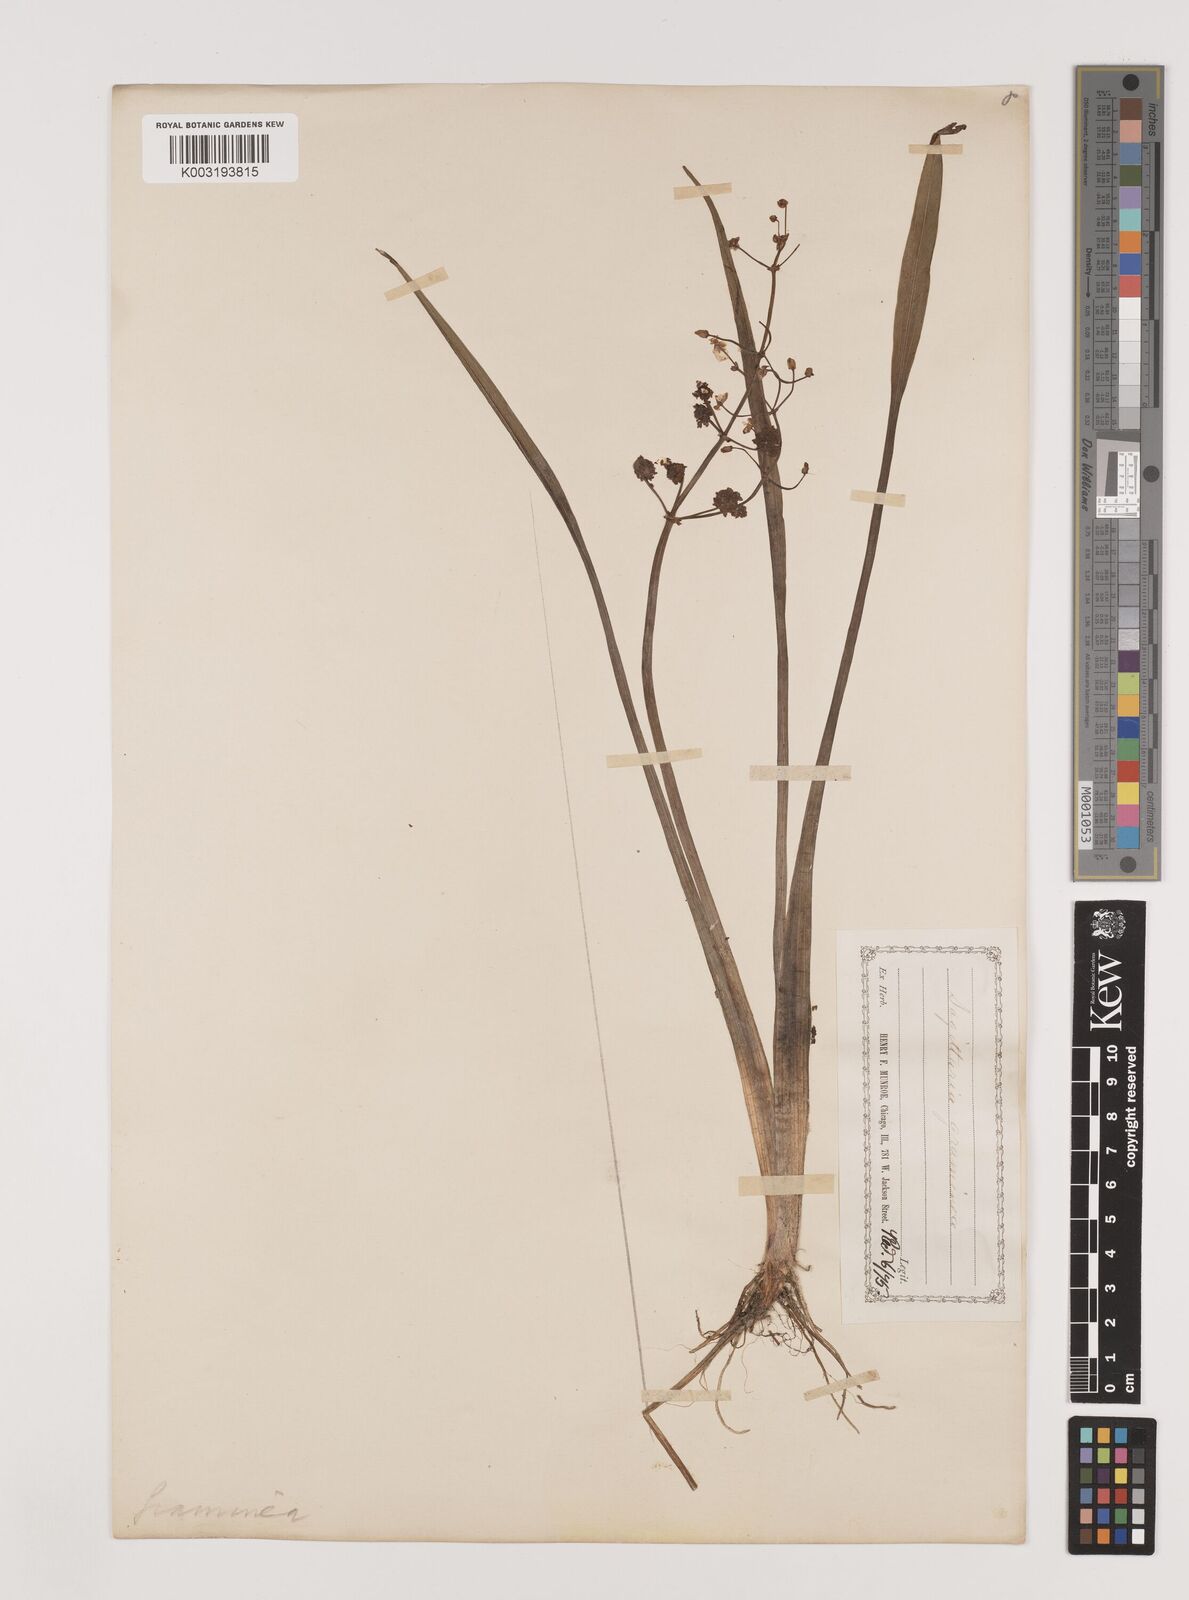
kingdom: Plantae
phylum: Tracheophyta
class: Liliopsida
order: Alismatales
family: Alismataceae
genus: Sagittaria
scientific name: Sagittaria graminea
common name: Grass-leaved arrowhead
